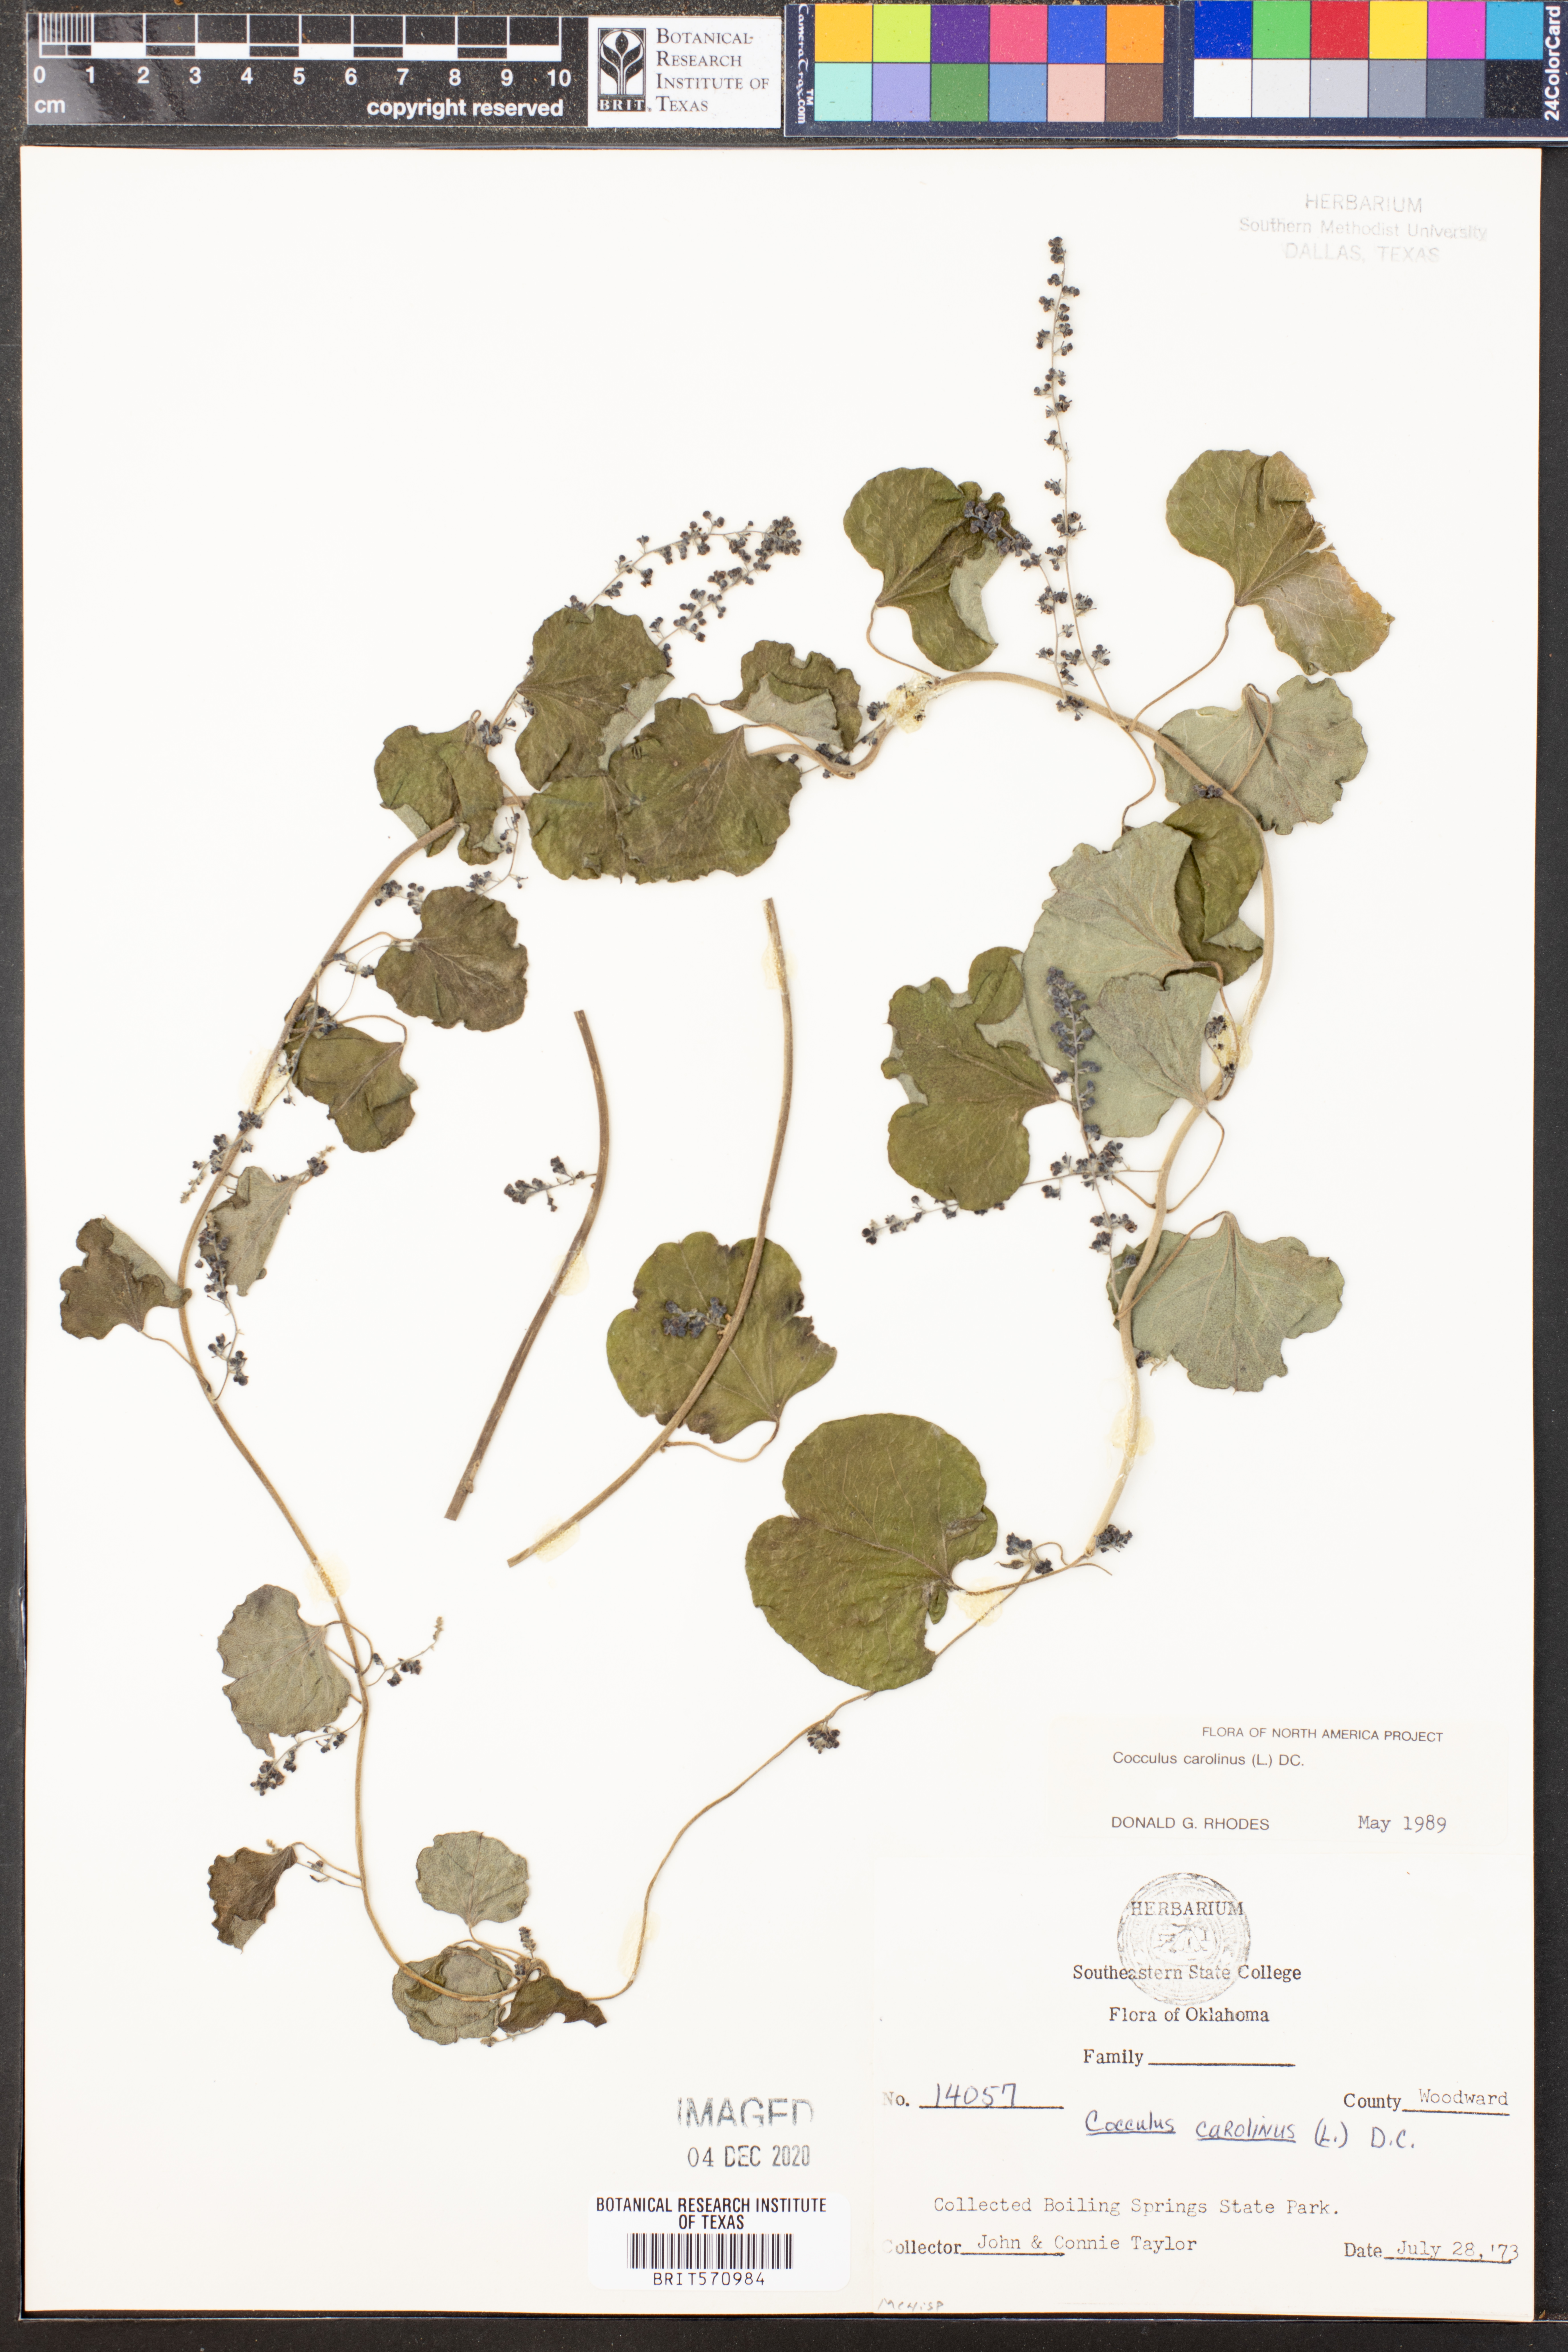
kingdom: Plantae
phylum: Tracheophyta
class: Magnoliopsida
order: Ranunculales
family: Menispermaceae
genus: Cocculus
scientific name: Cocculus carolinus
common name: Carolina moonseed
